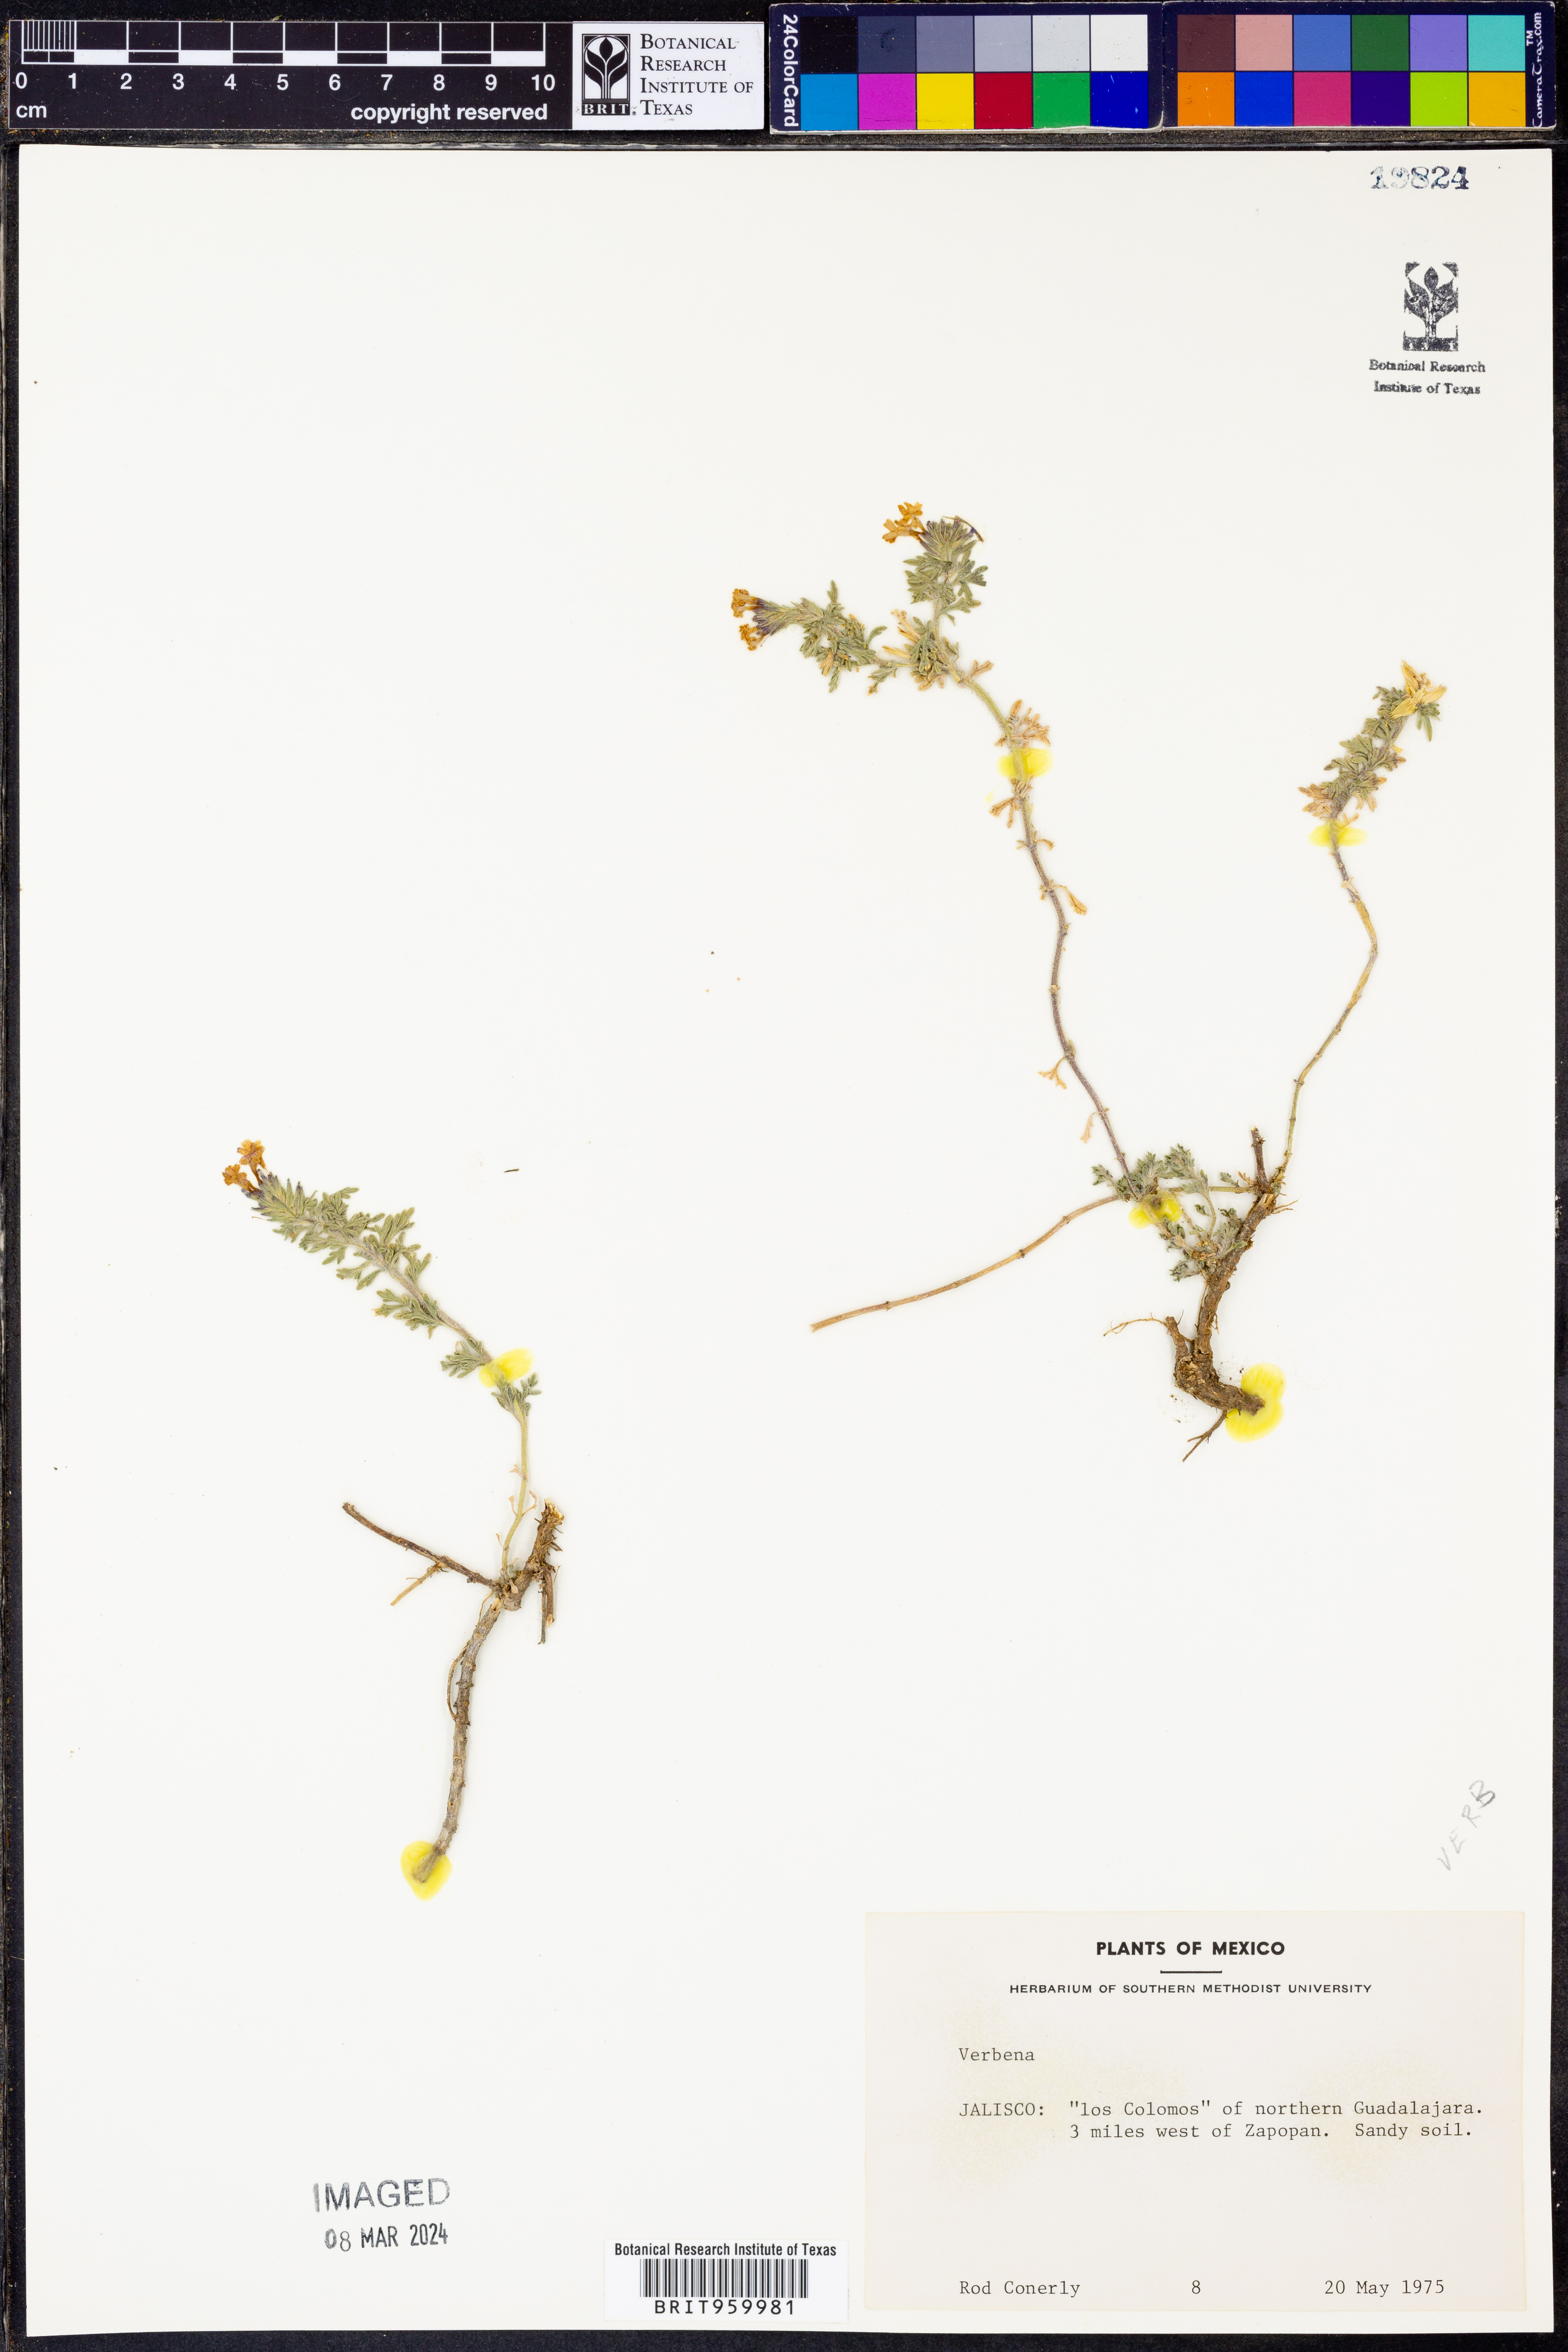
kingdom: Plantae
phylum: Tracheophyta
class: Magnoliopsida
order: Lamiales
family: Verbenaceae
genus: Verbena
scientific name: Verbena
